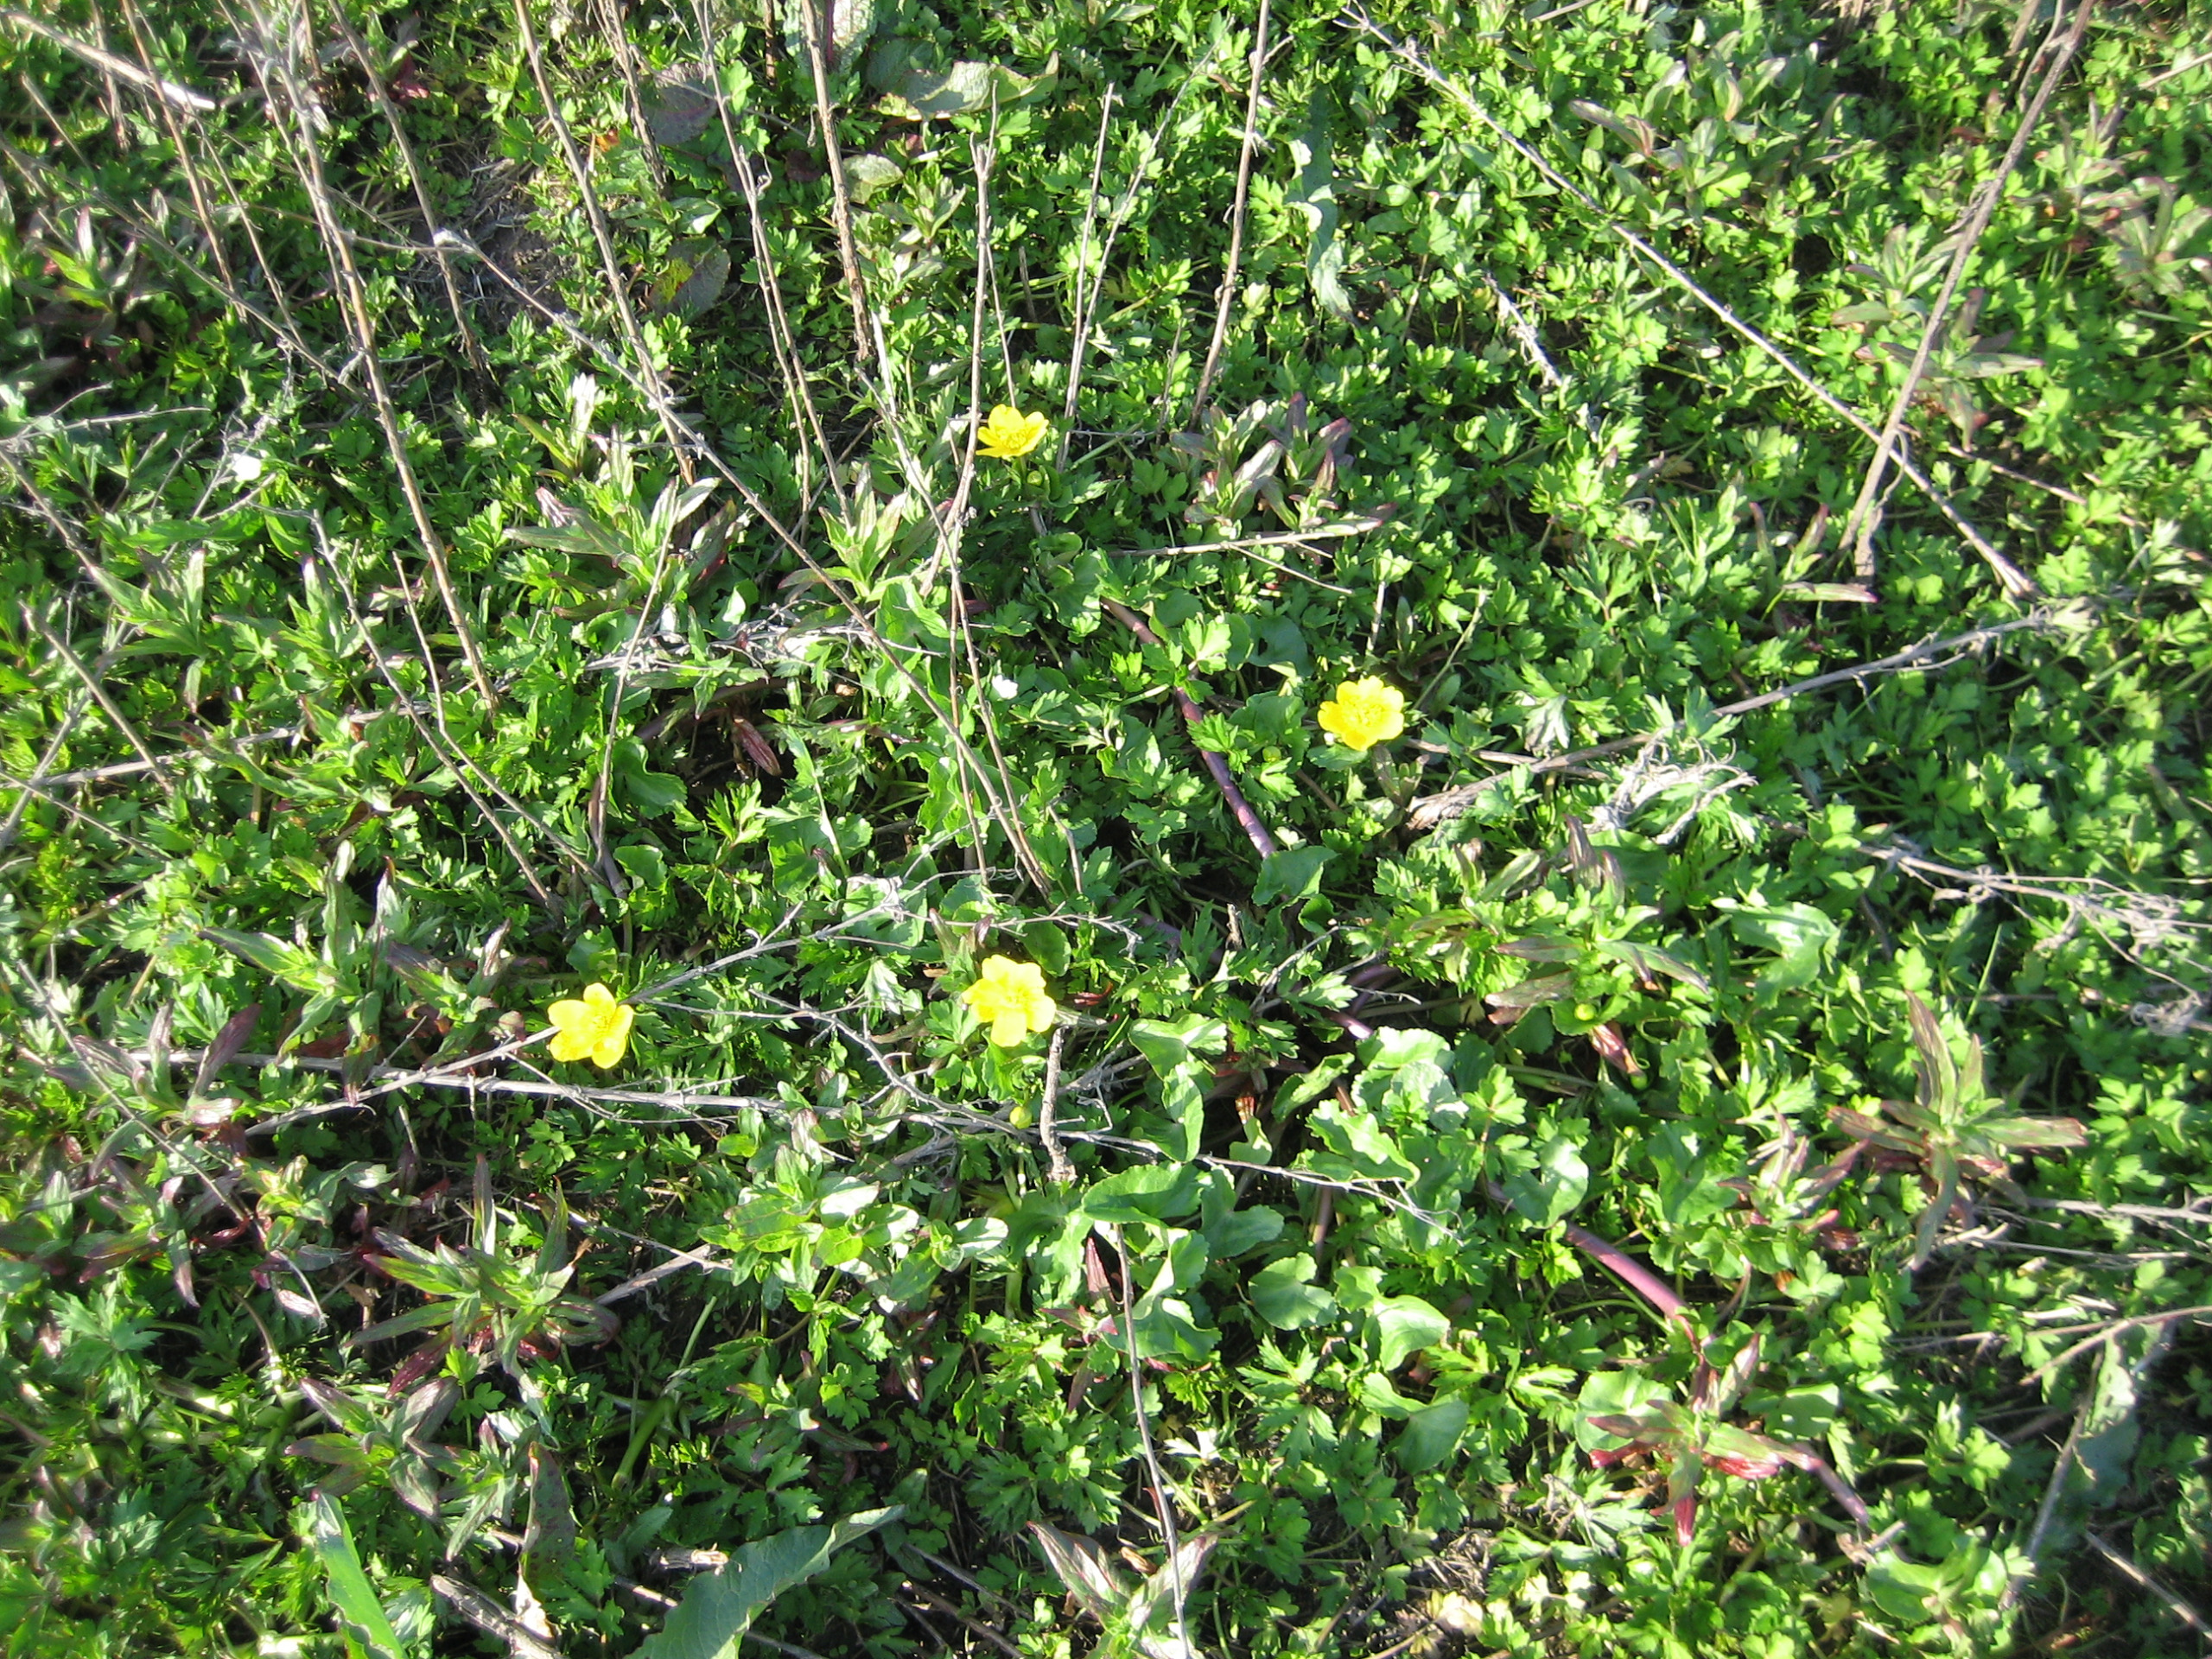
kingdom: Plantae
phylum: Tracheophyta
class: Magnoliopsida
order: Ranunculales
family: Ranunculaceae
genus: Caltha
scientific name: Caltha palustris
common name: Eng-kabbeleje
